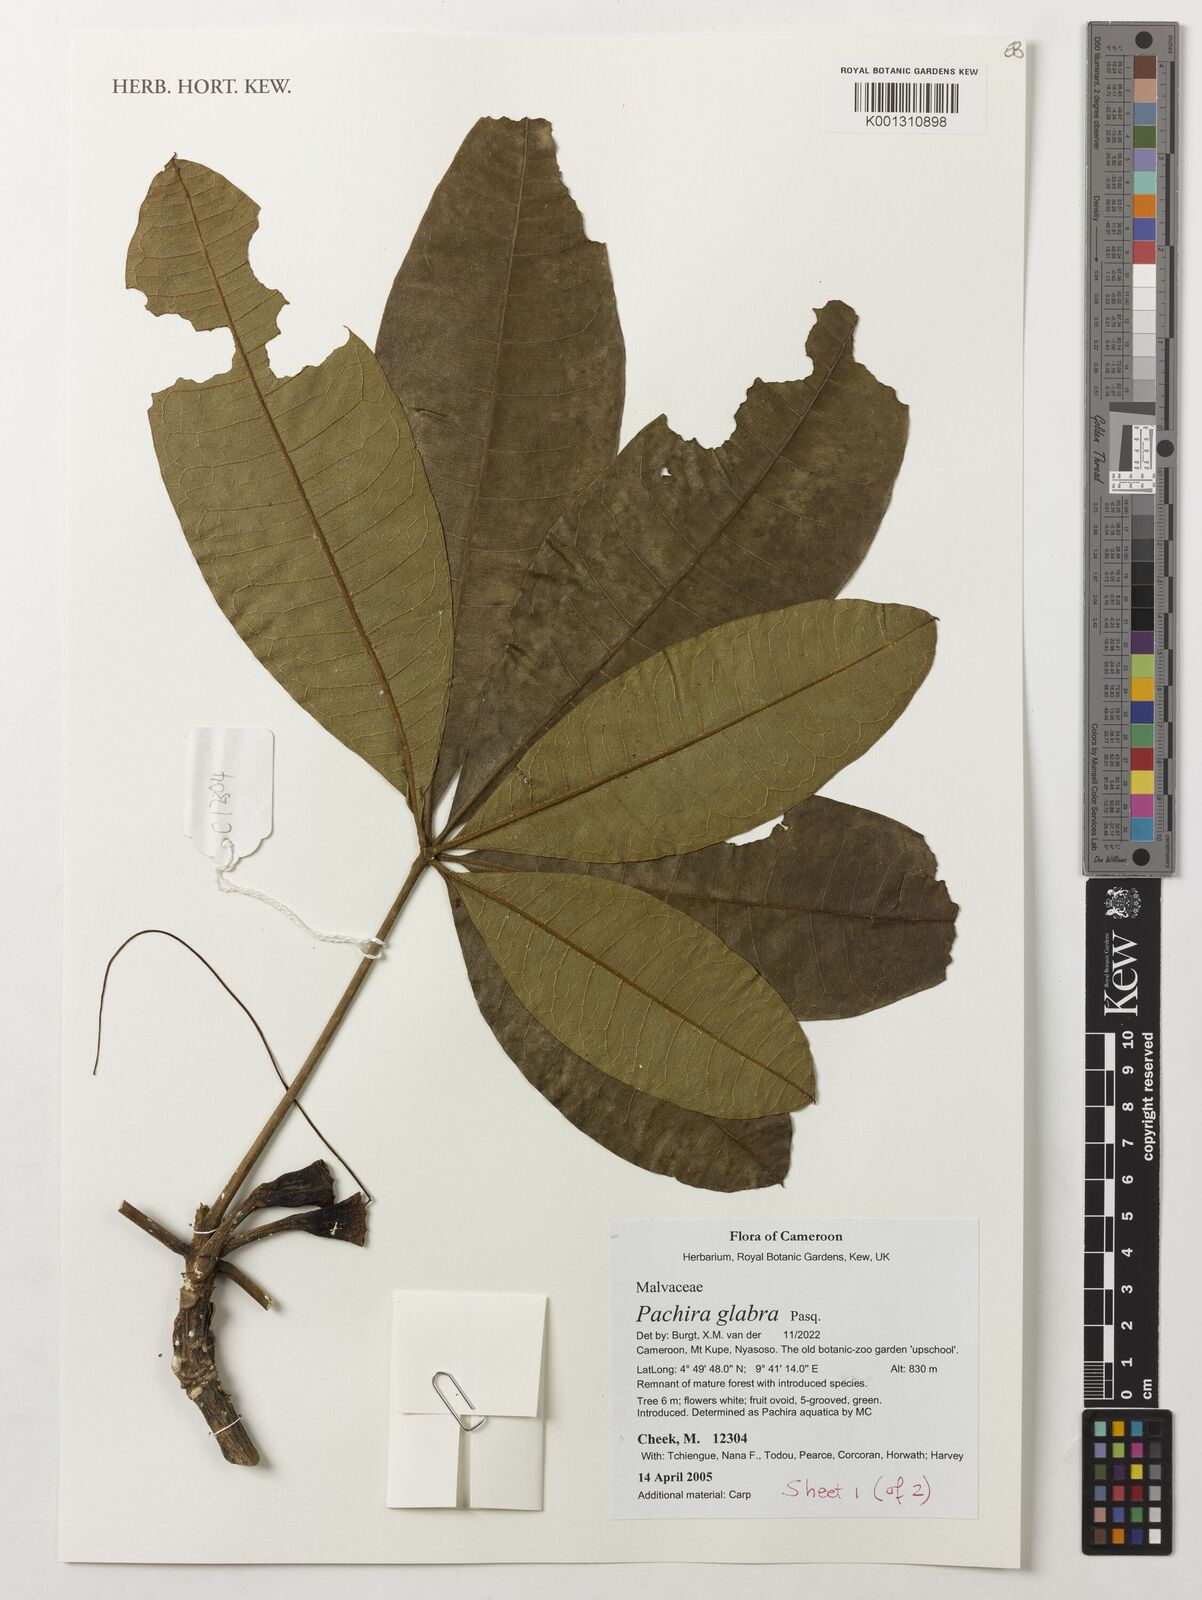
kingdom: Plantae
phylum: Tracheophyta
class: Magnoliopsida
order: Malvales
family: Malvaceae
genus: Pachira
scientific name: Pachira glabra
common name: Moneytree
